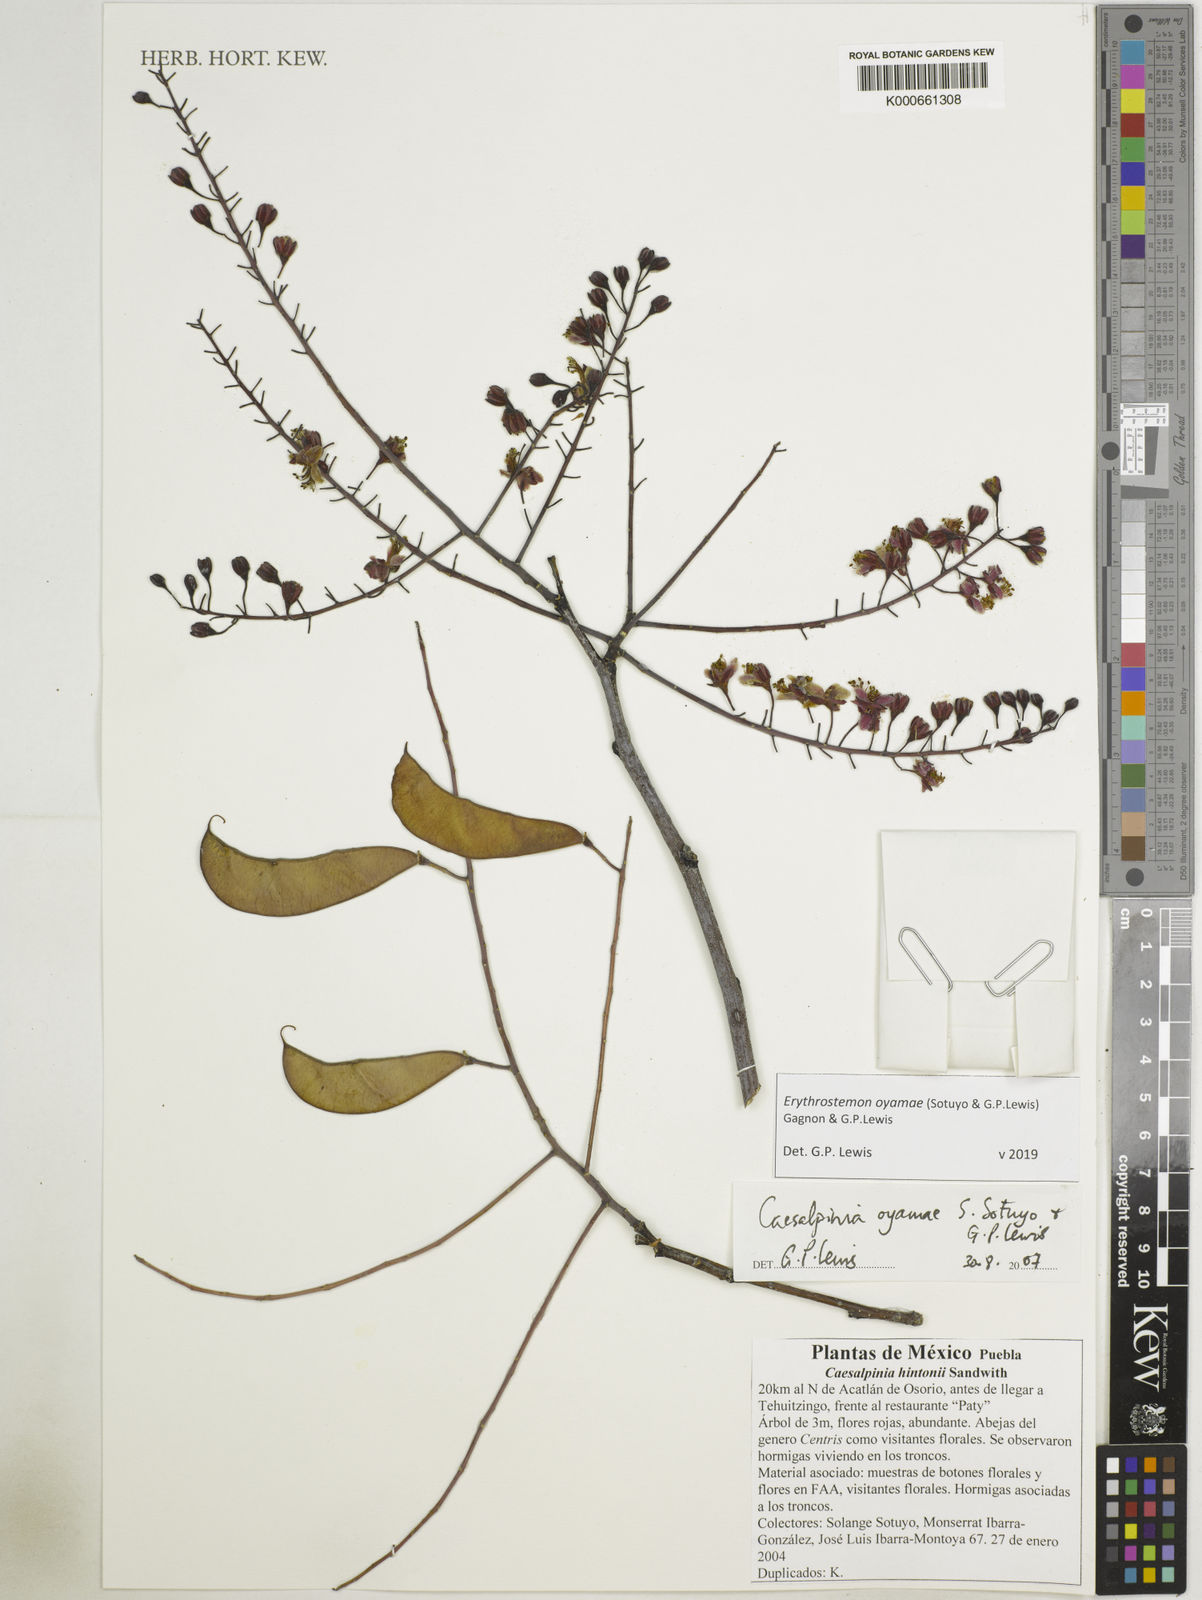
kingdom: Plantae
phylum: Tracheophyta
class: Magnoliopsida
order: Fabales
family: Fabaceae
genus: Erythrostemon
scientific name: Erythrostemon oyamae
